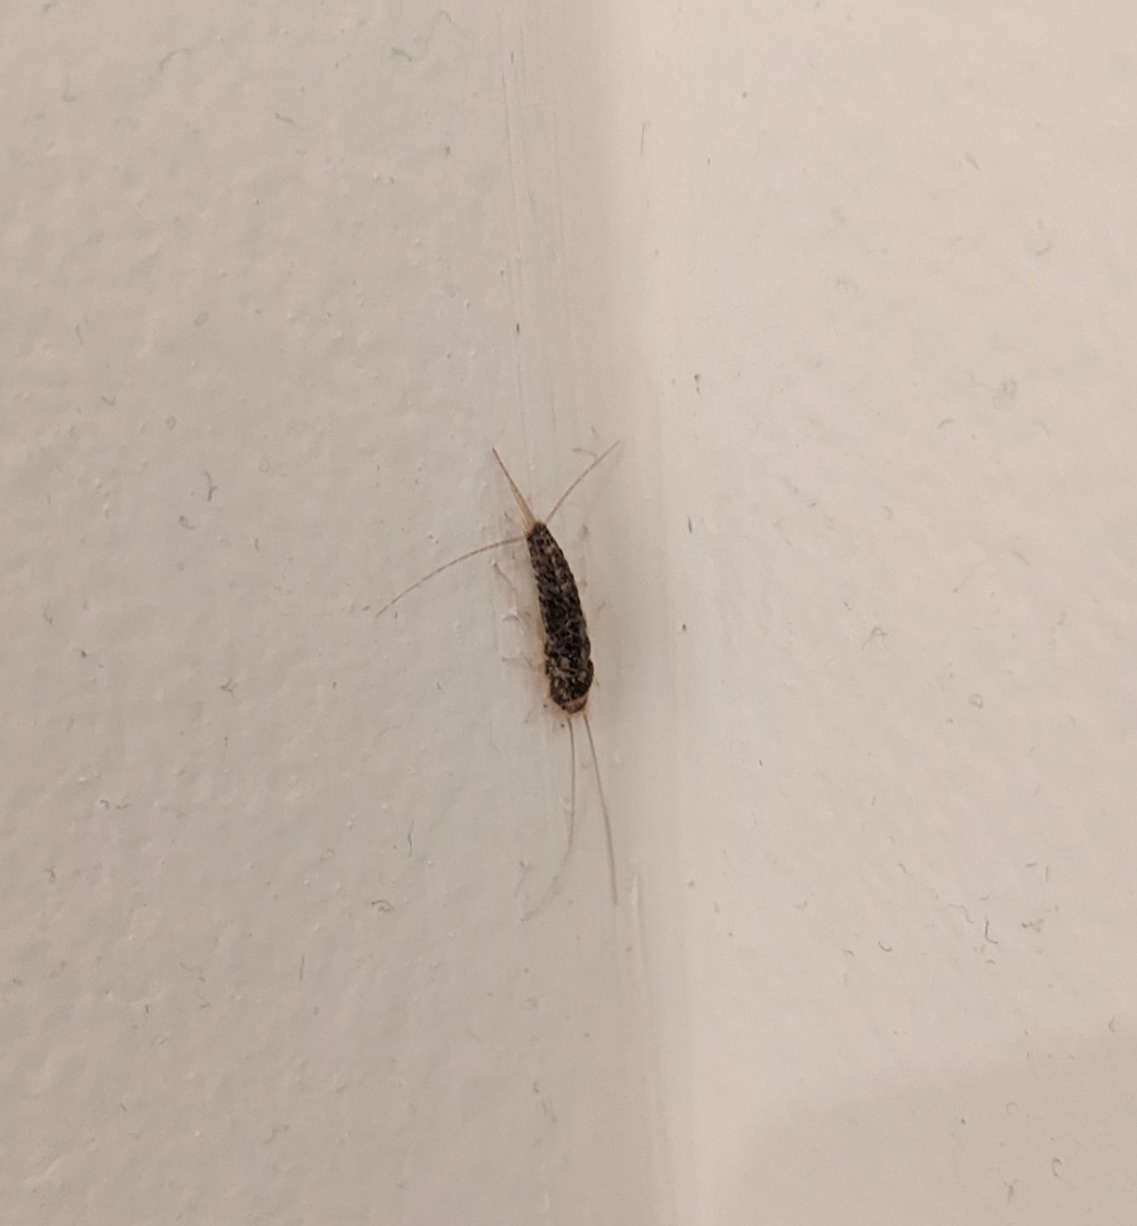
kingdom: Animalia
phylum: Arthropoda
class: Insecta
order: Zygentoma
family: Lepismatidae
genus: Ctenolepisma
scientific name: Ctenolepisma longicaudatum
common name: Skægget sølvkræ
